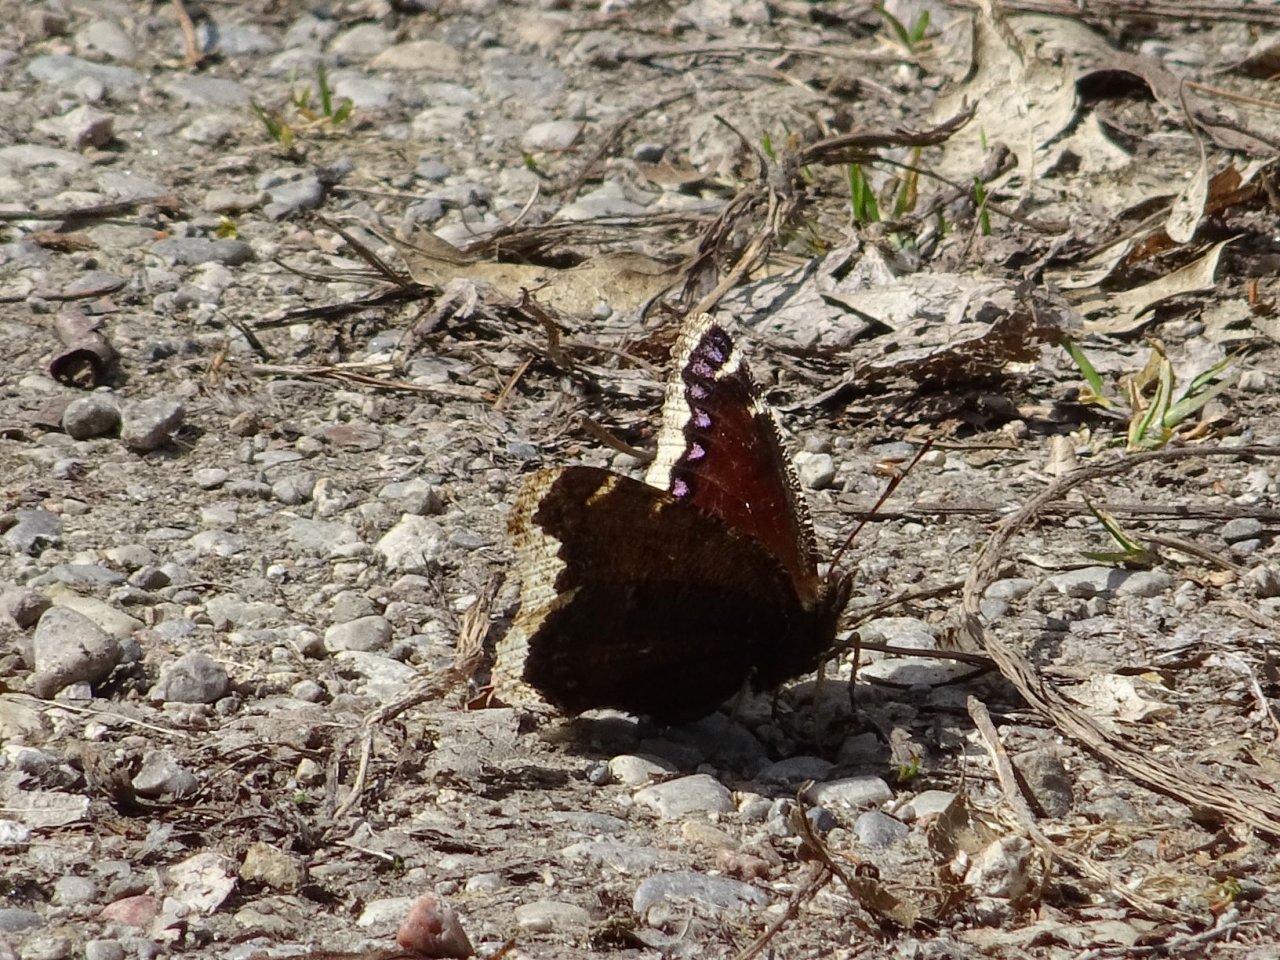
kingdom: Animalia
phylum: Arthropoda
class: Insecta
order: Lepidoptera
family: Nymphalidae
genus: Nymphalis
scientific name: Nymphalis antiopa
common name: Mourning Cloak
